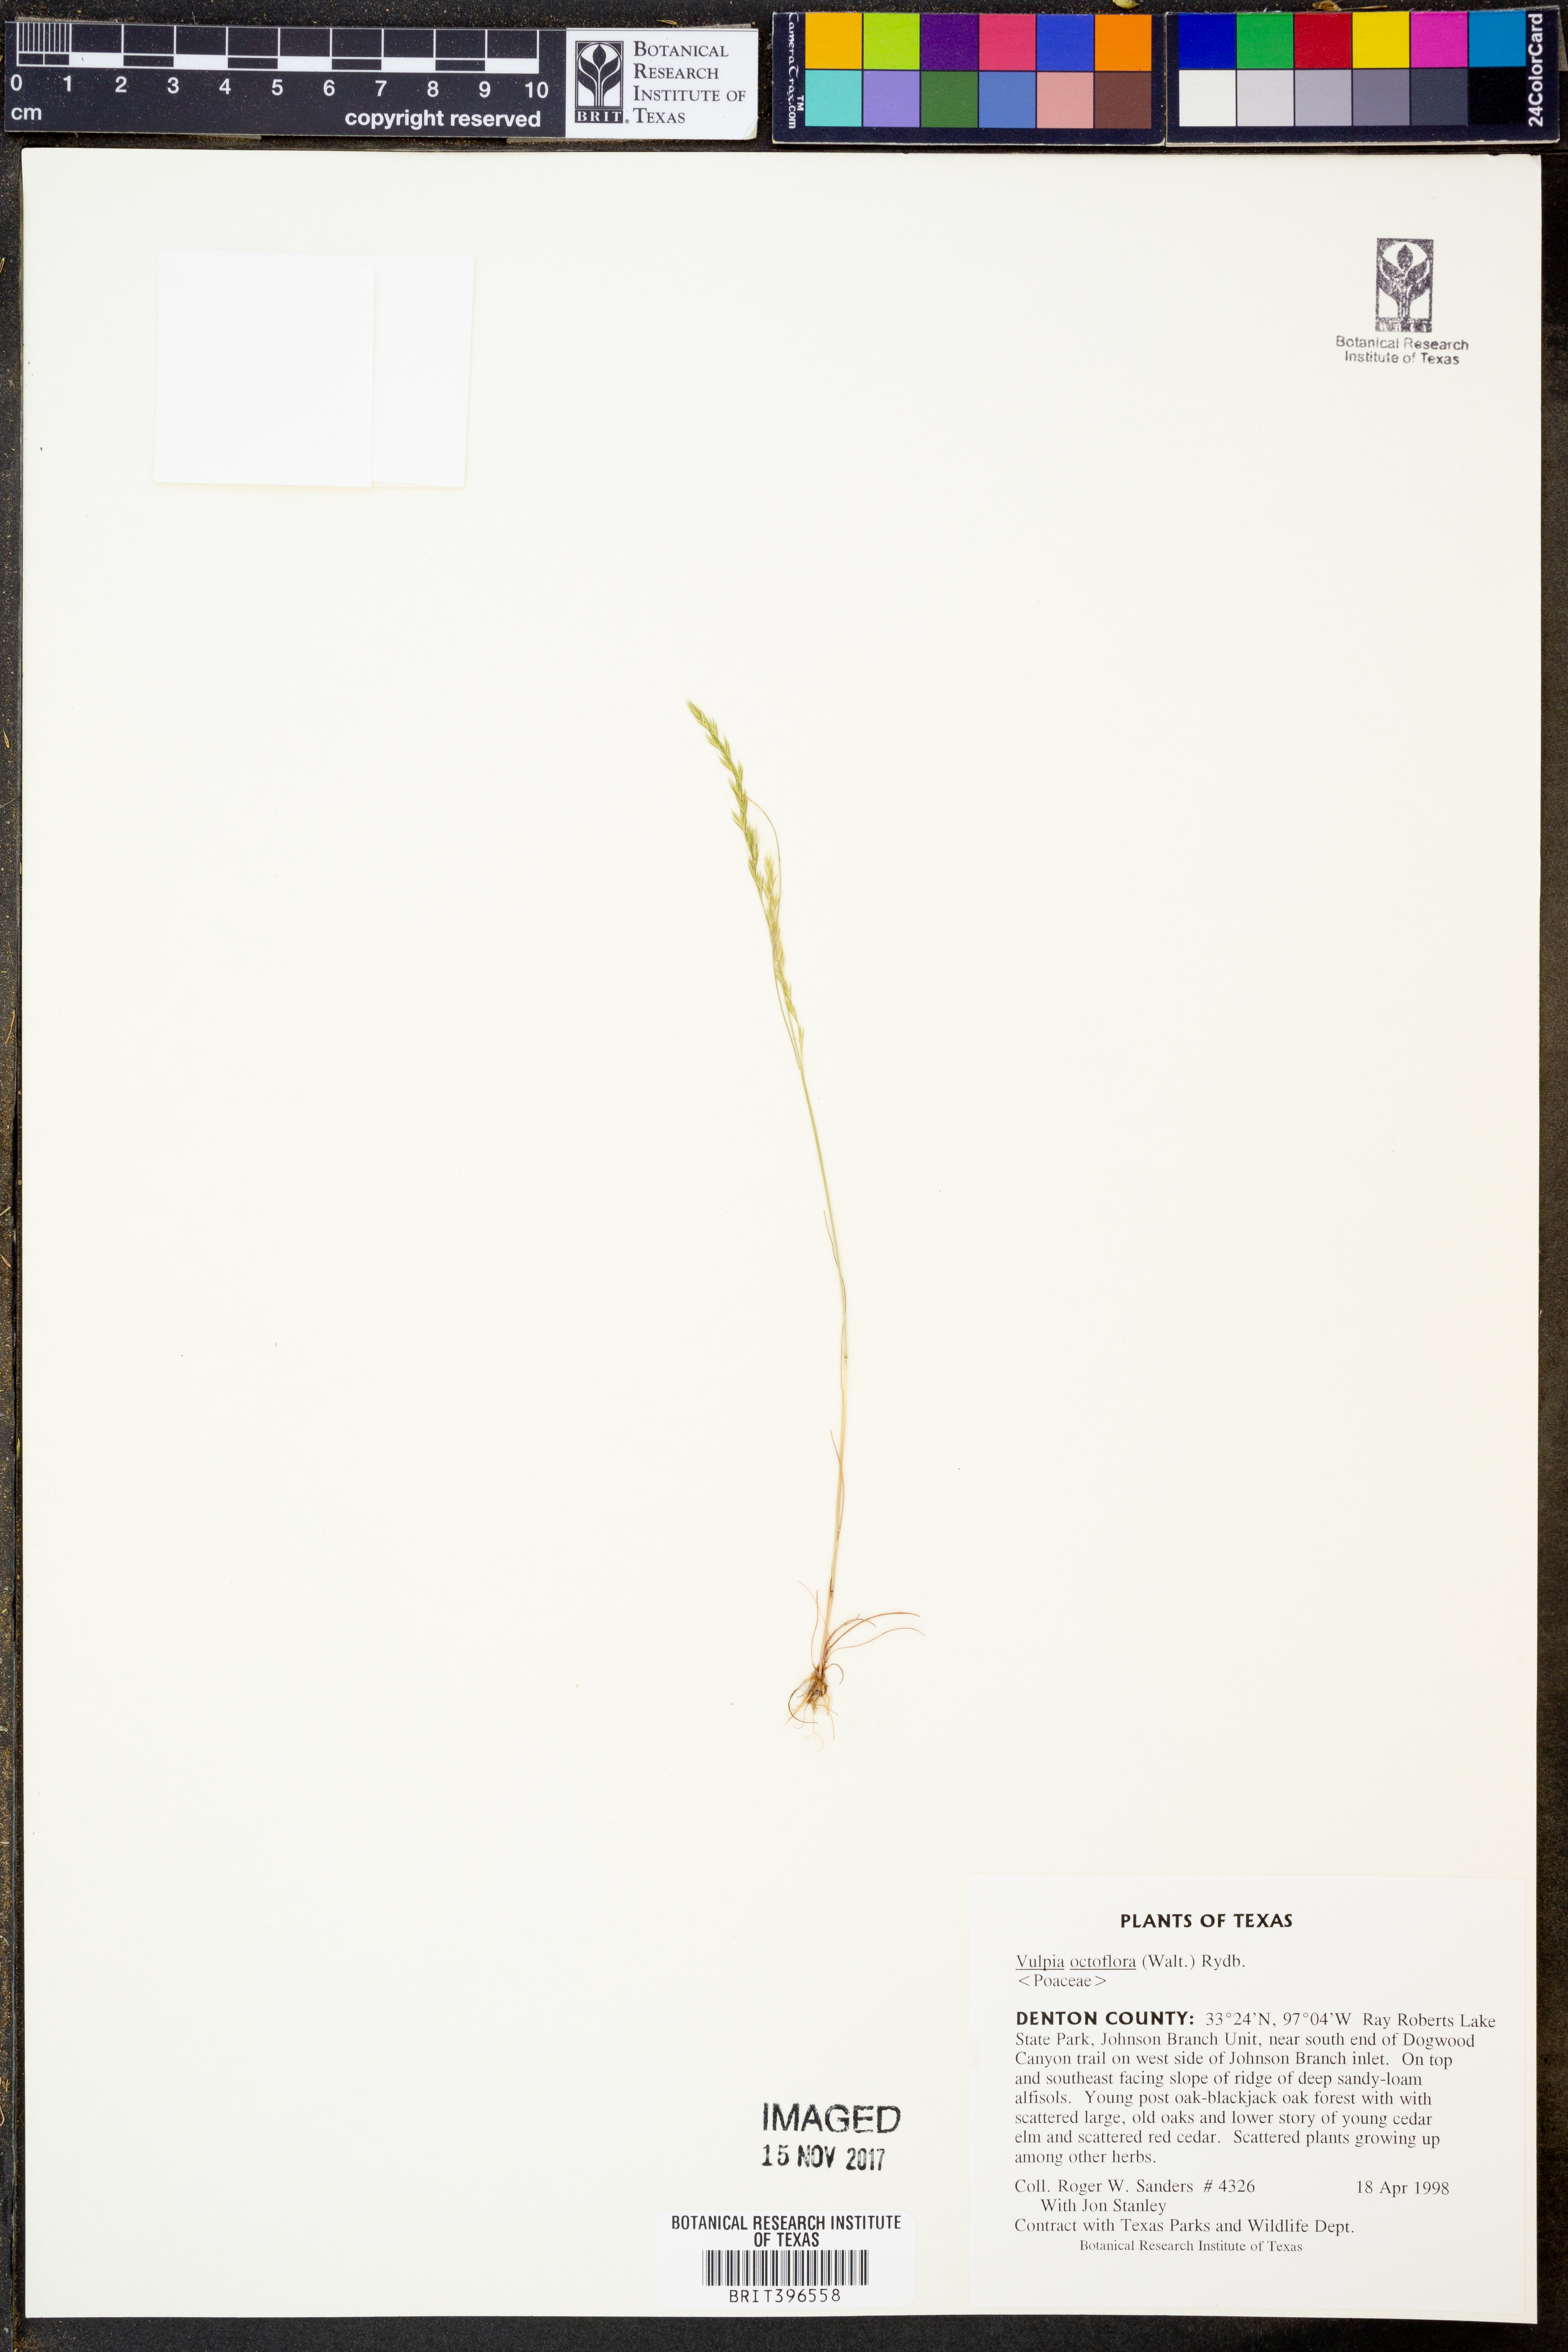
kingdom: Plantae
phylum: Tracheophyta
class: Liliopsida
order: Poales
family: Poaceae
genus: Festuca
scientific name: Festuca octoflora
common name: Sixweeks grass
